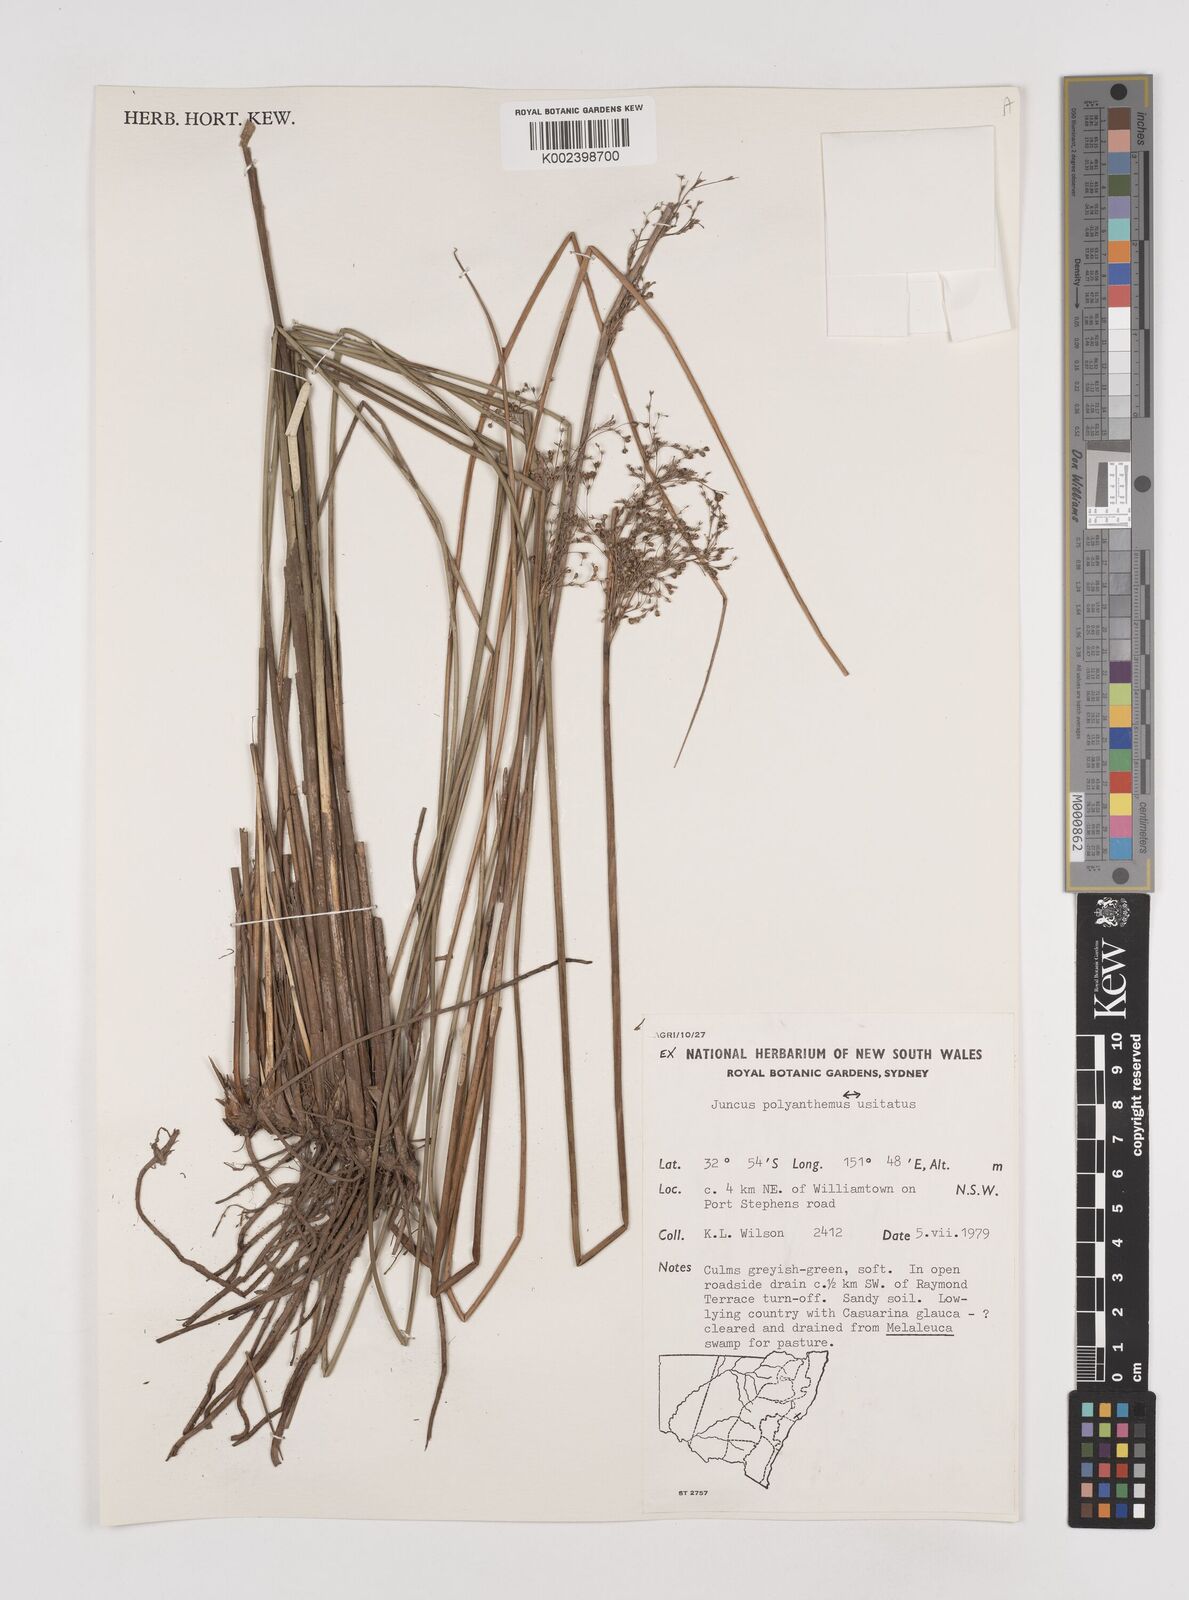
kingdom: Plantae
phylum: Tracheophyta
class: Liliopsida
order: Poales
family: Juncaceae
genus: Juncus
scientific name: Juncus polyanthemus
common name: Manyflower rush
